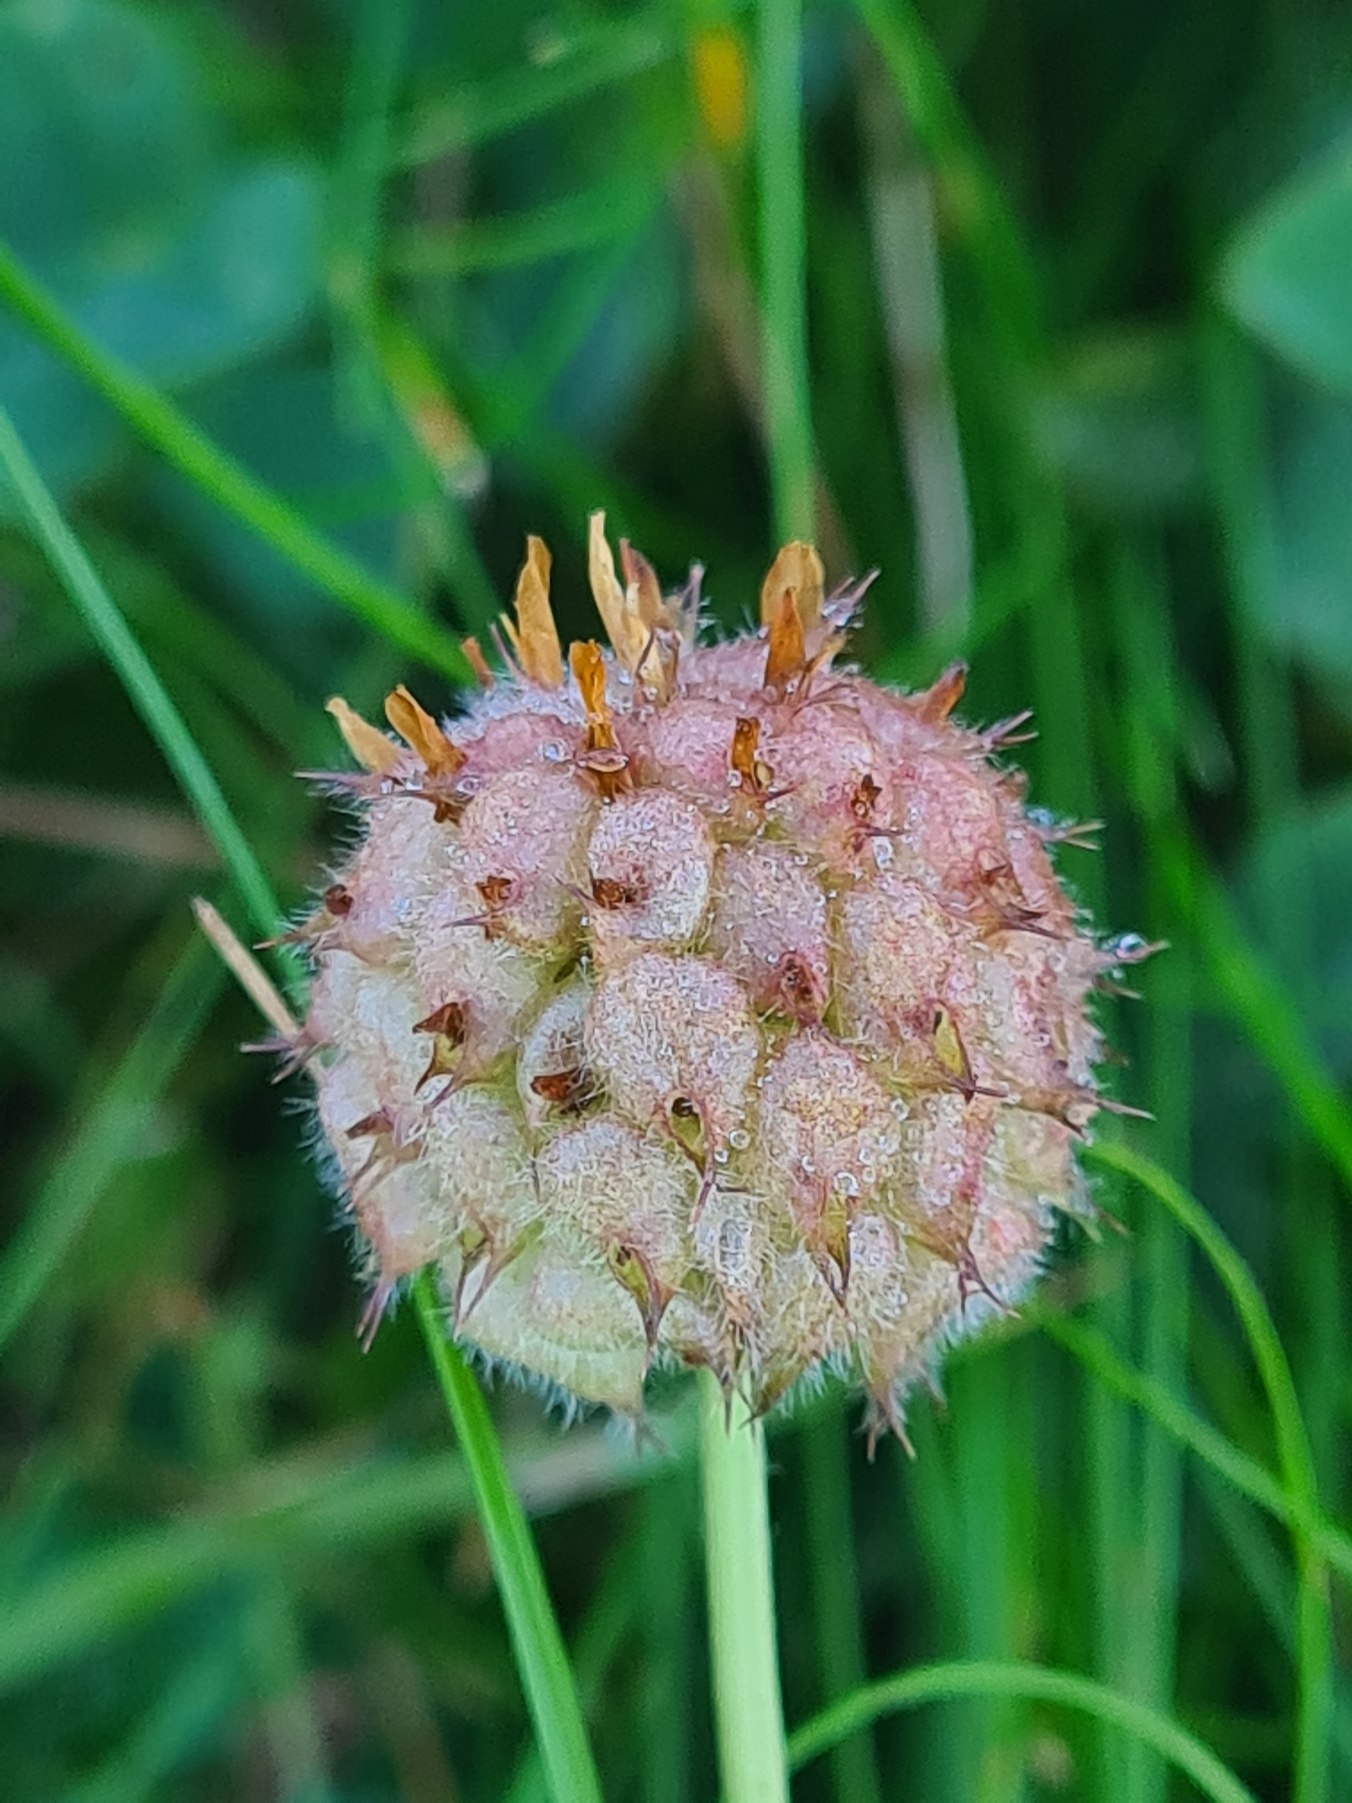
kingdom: Plantae
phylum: Tracheophyta
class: Magnoliopsida
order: Fabales
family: Fabaceae
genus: Trifolium
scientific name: Trifolium fragiferum
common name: Jordbær-kløver
